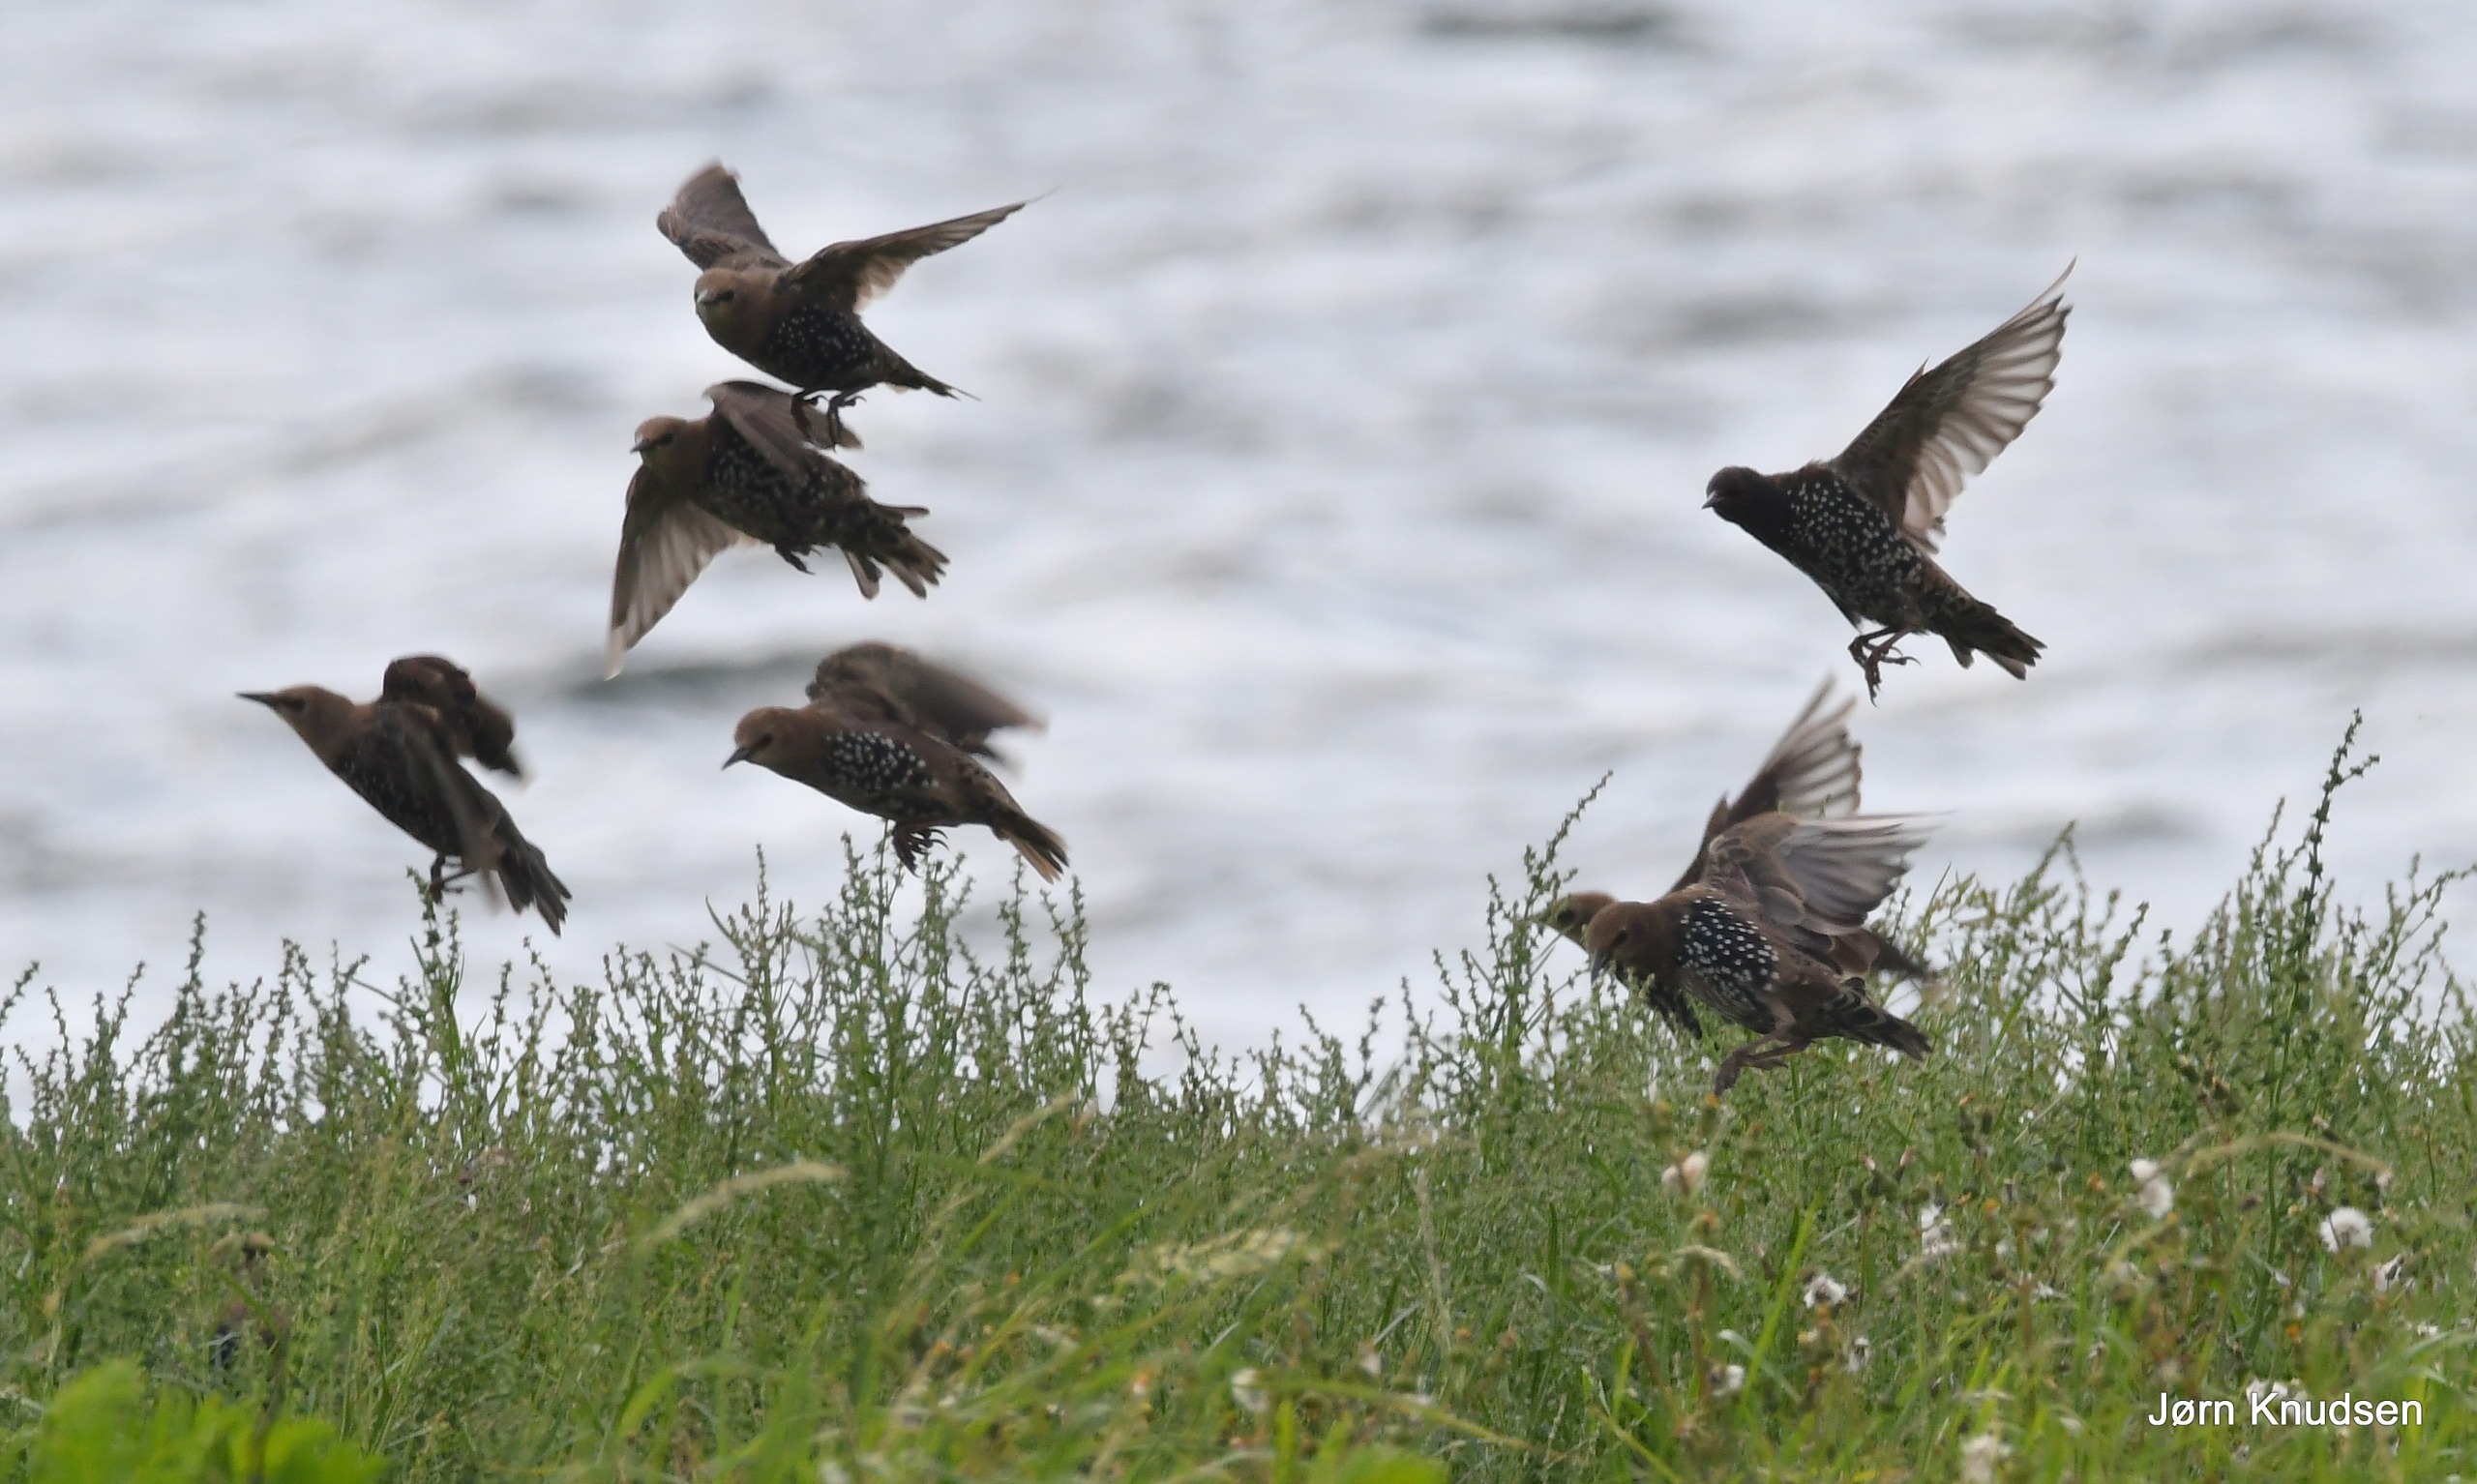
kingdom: Animalia
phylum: Chordata
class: Aves
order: Passeriformes
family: Sturnidae
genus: Sturnus
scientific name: Sturnus vulgaris
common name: Stær
